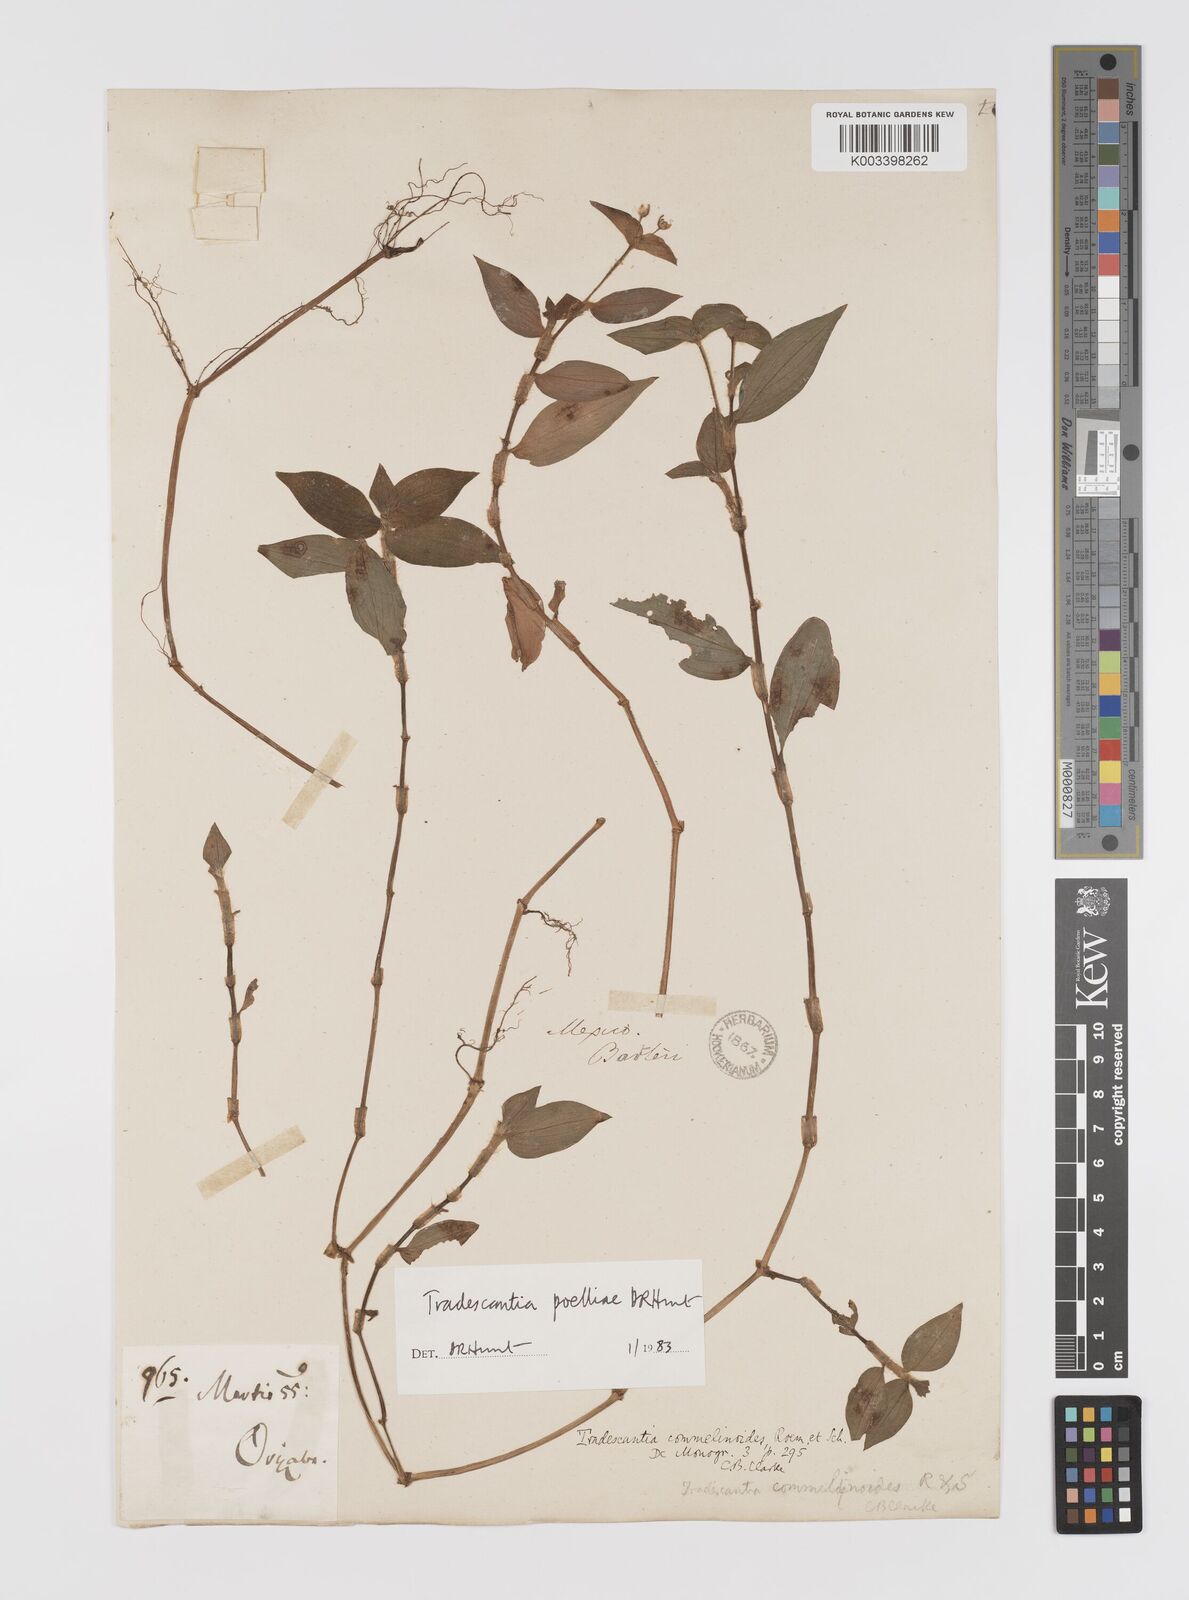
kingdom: Plantae
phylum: Tracheophyta
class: Liliopsida
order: Commelinales
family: Commelinaceae
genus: Tradescantia
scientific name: Tradescantia poelliae
